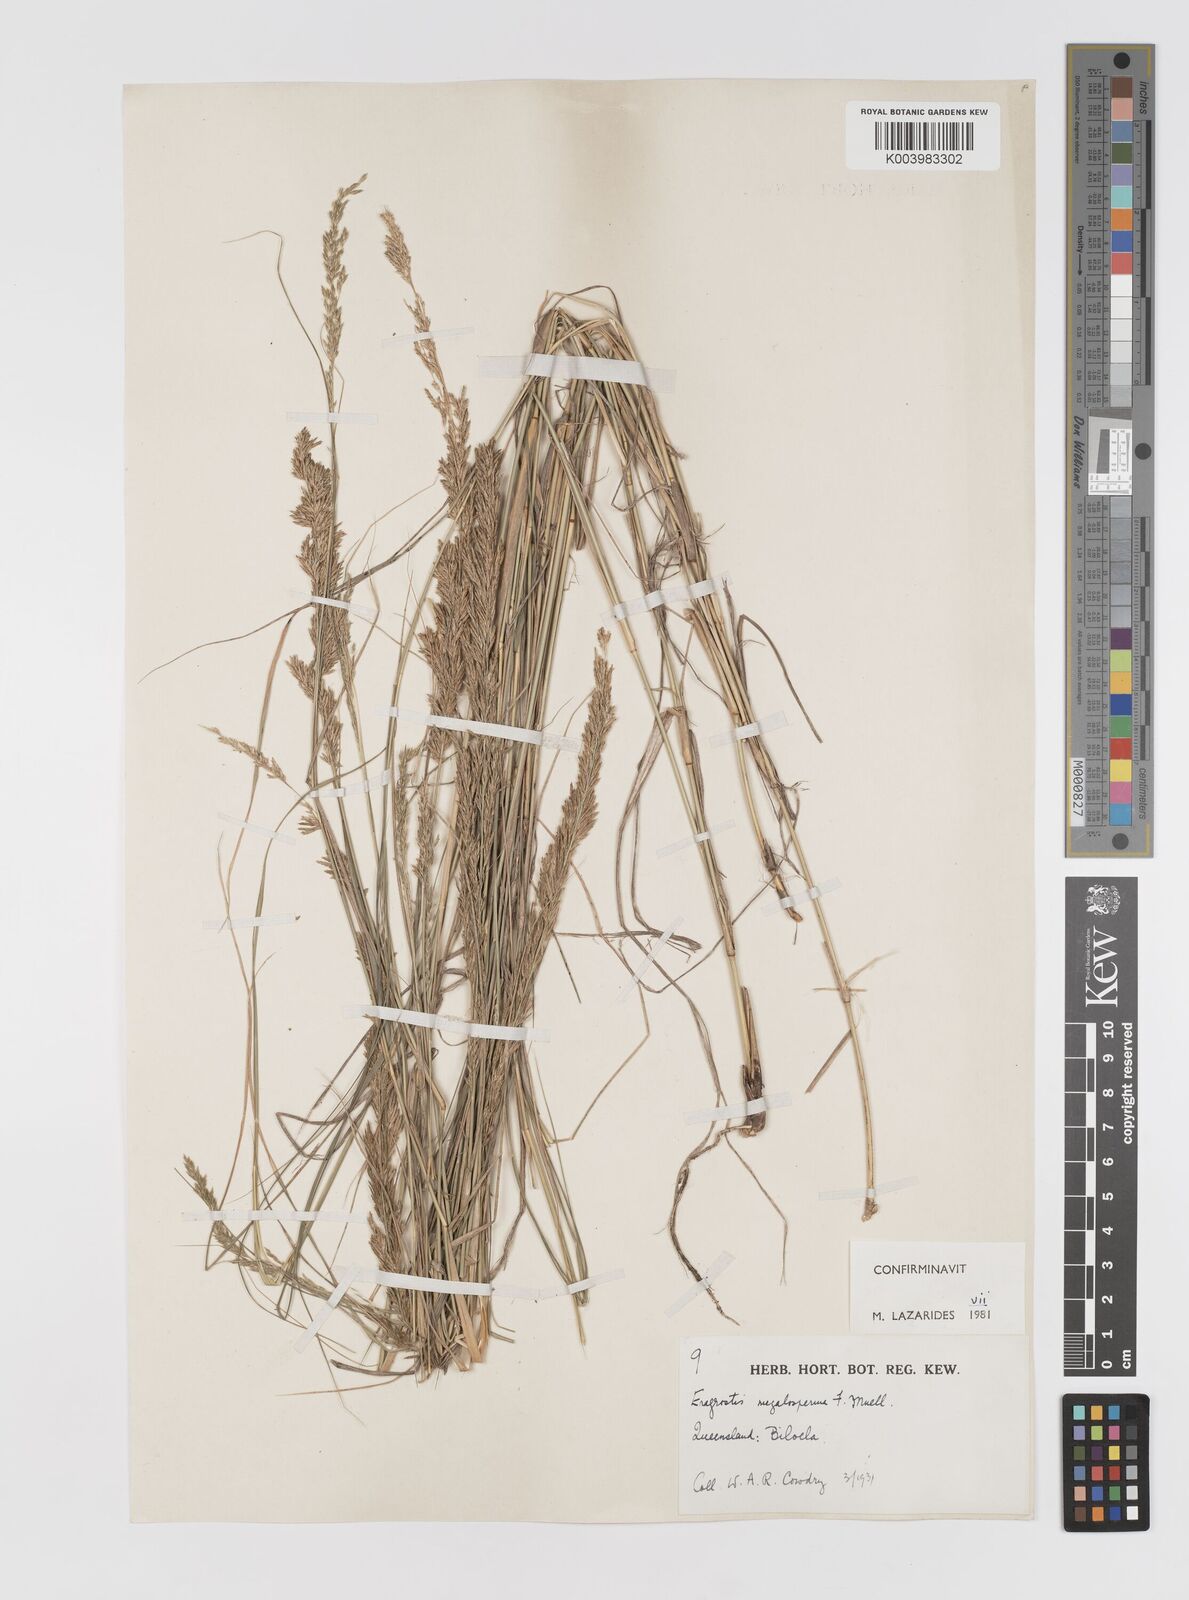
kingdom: Plantae
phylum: Tracheophyta
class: Liliopsida
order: Poales
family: Poaceae
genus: Sporobolus
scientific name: Sporobolus megalospermus
